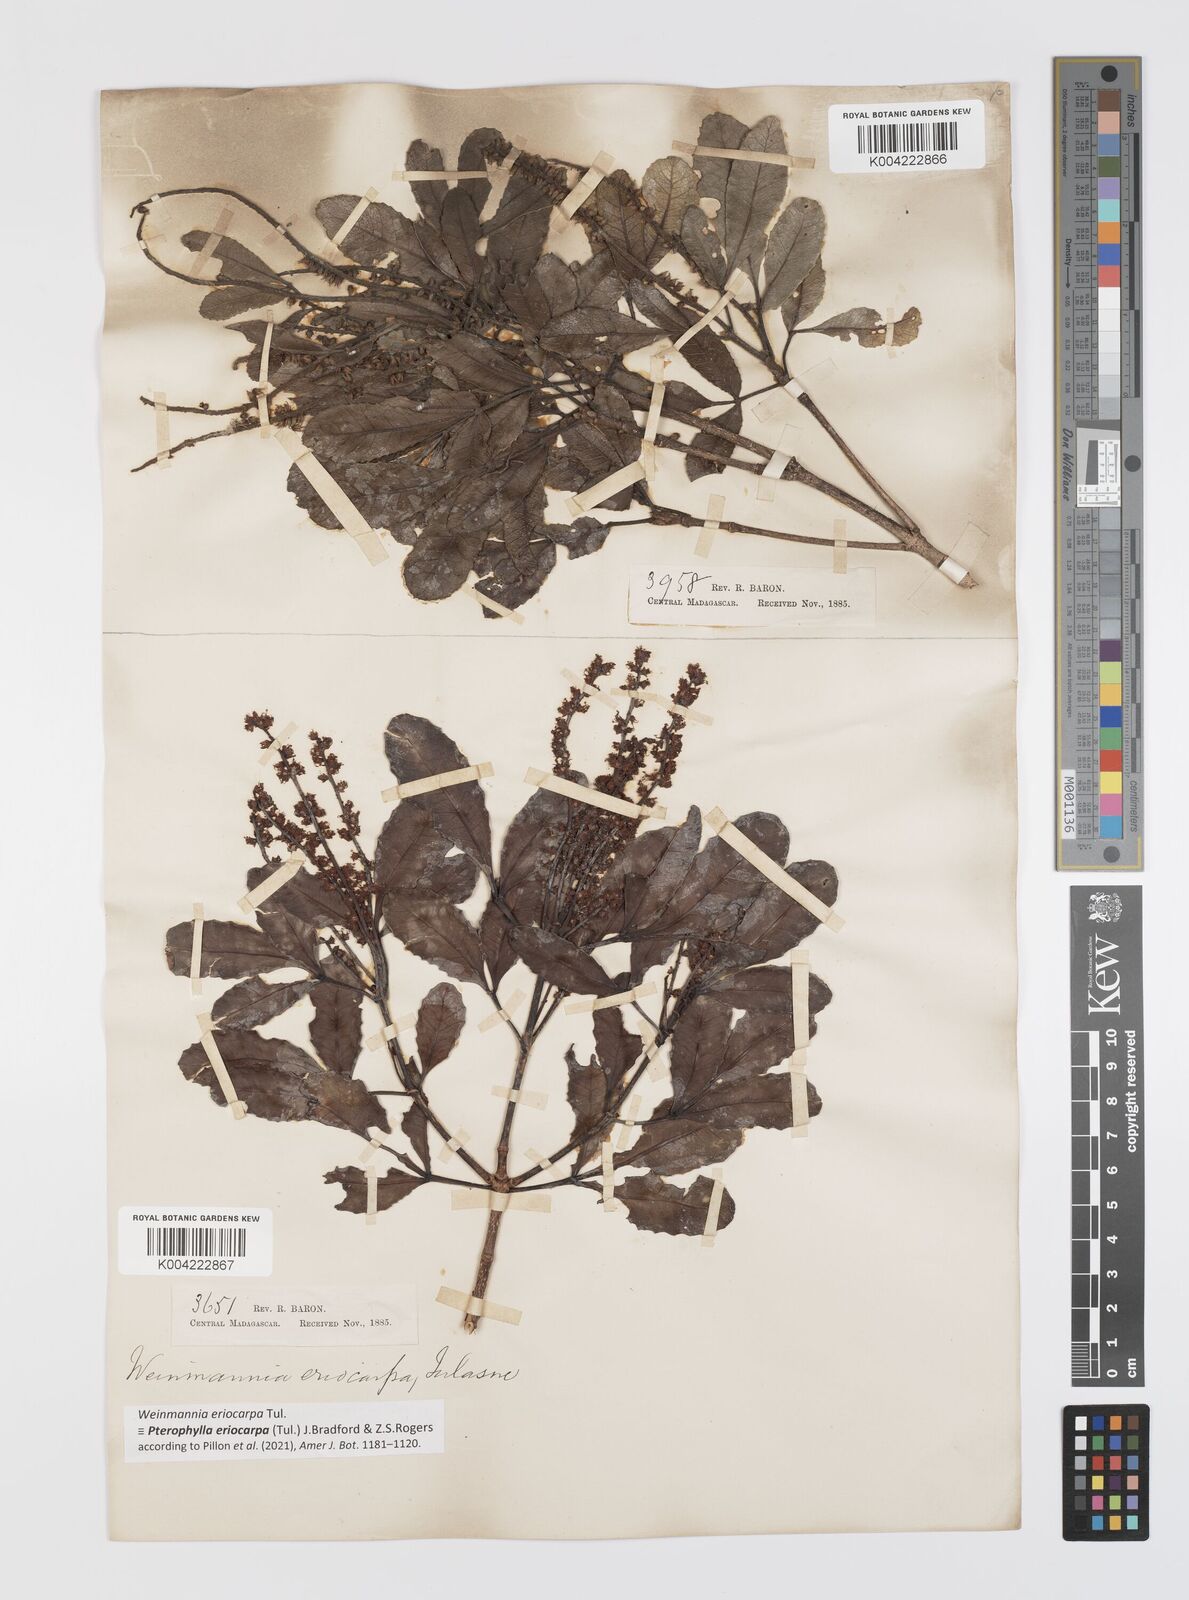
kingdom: Plantae
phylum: Tracheophyta
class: Magnoliopsida
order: Oxalidales
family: Cunoniaceae
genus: Pterophylla
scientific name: Pterophylla eriocarpa
